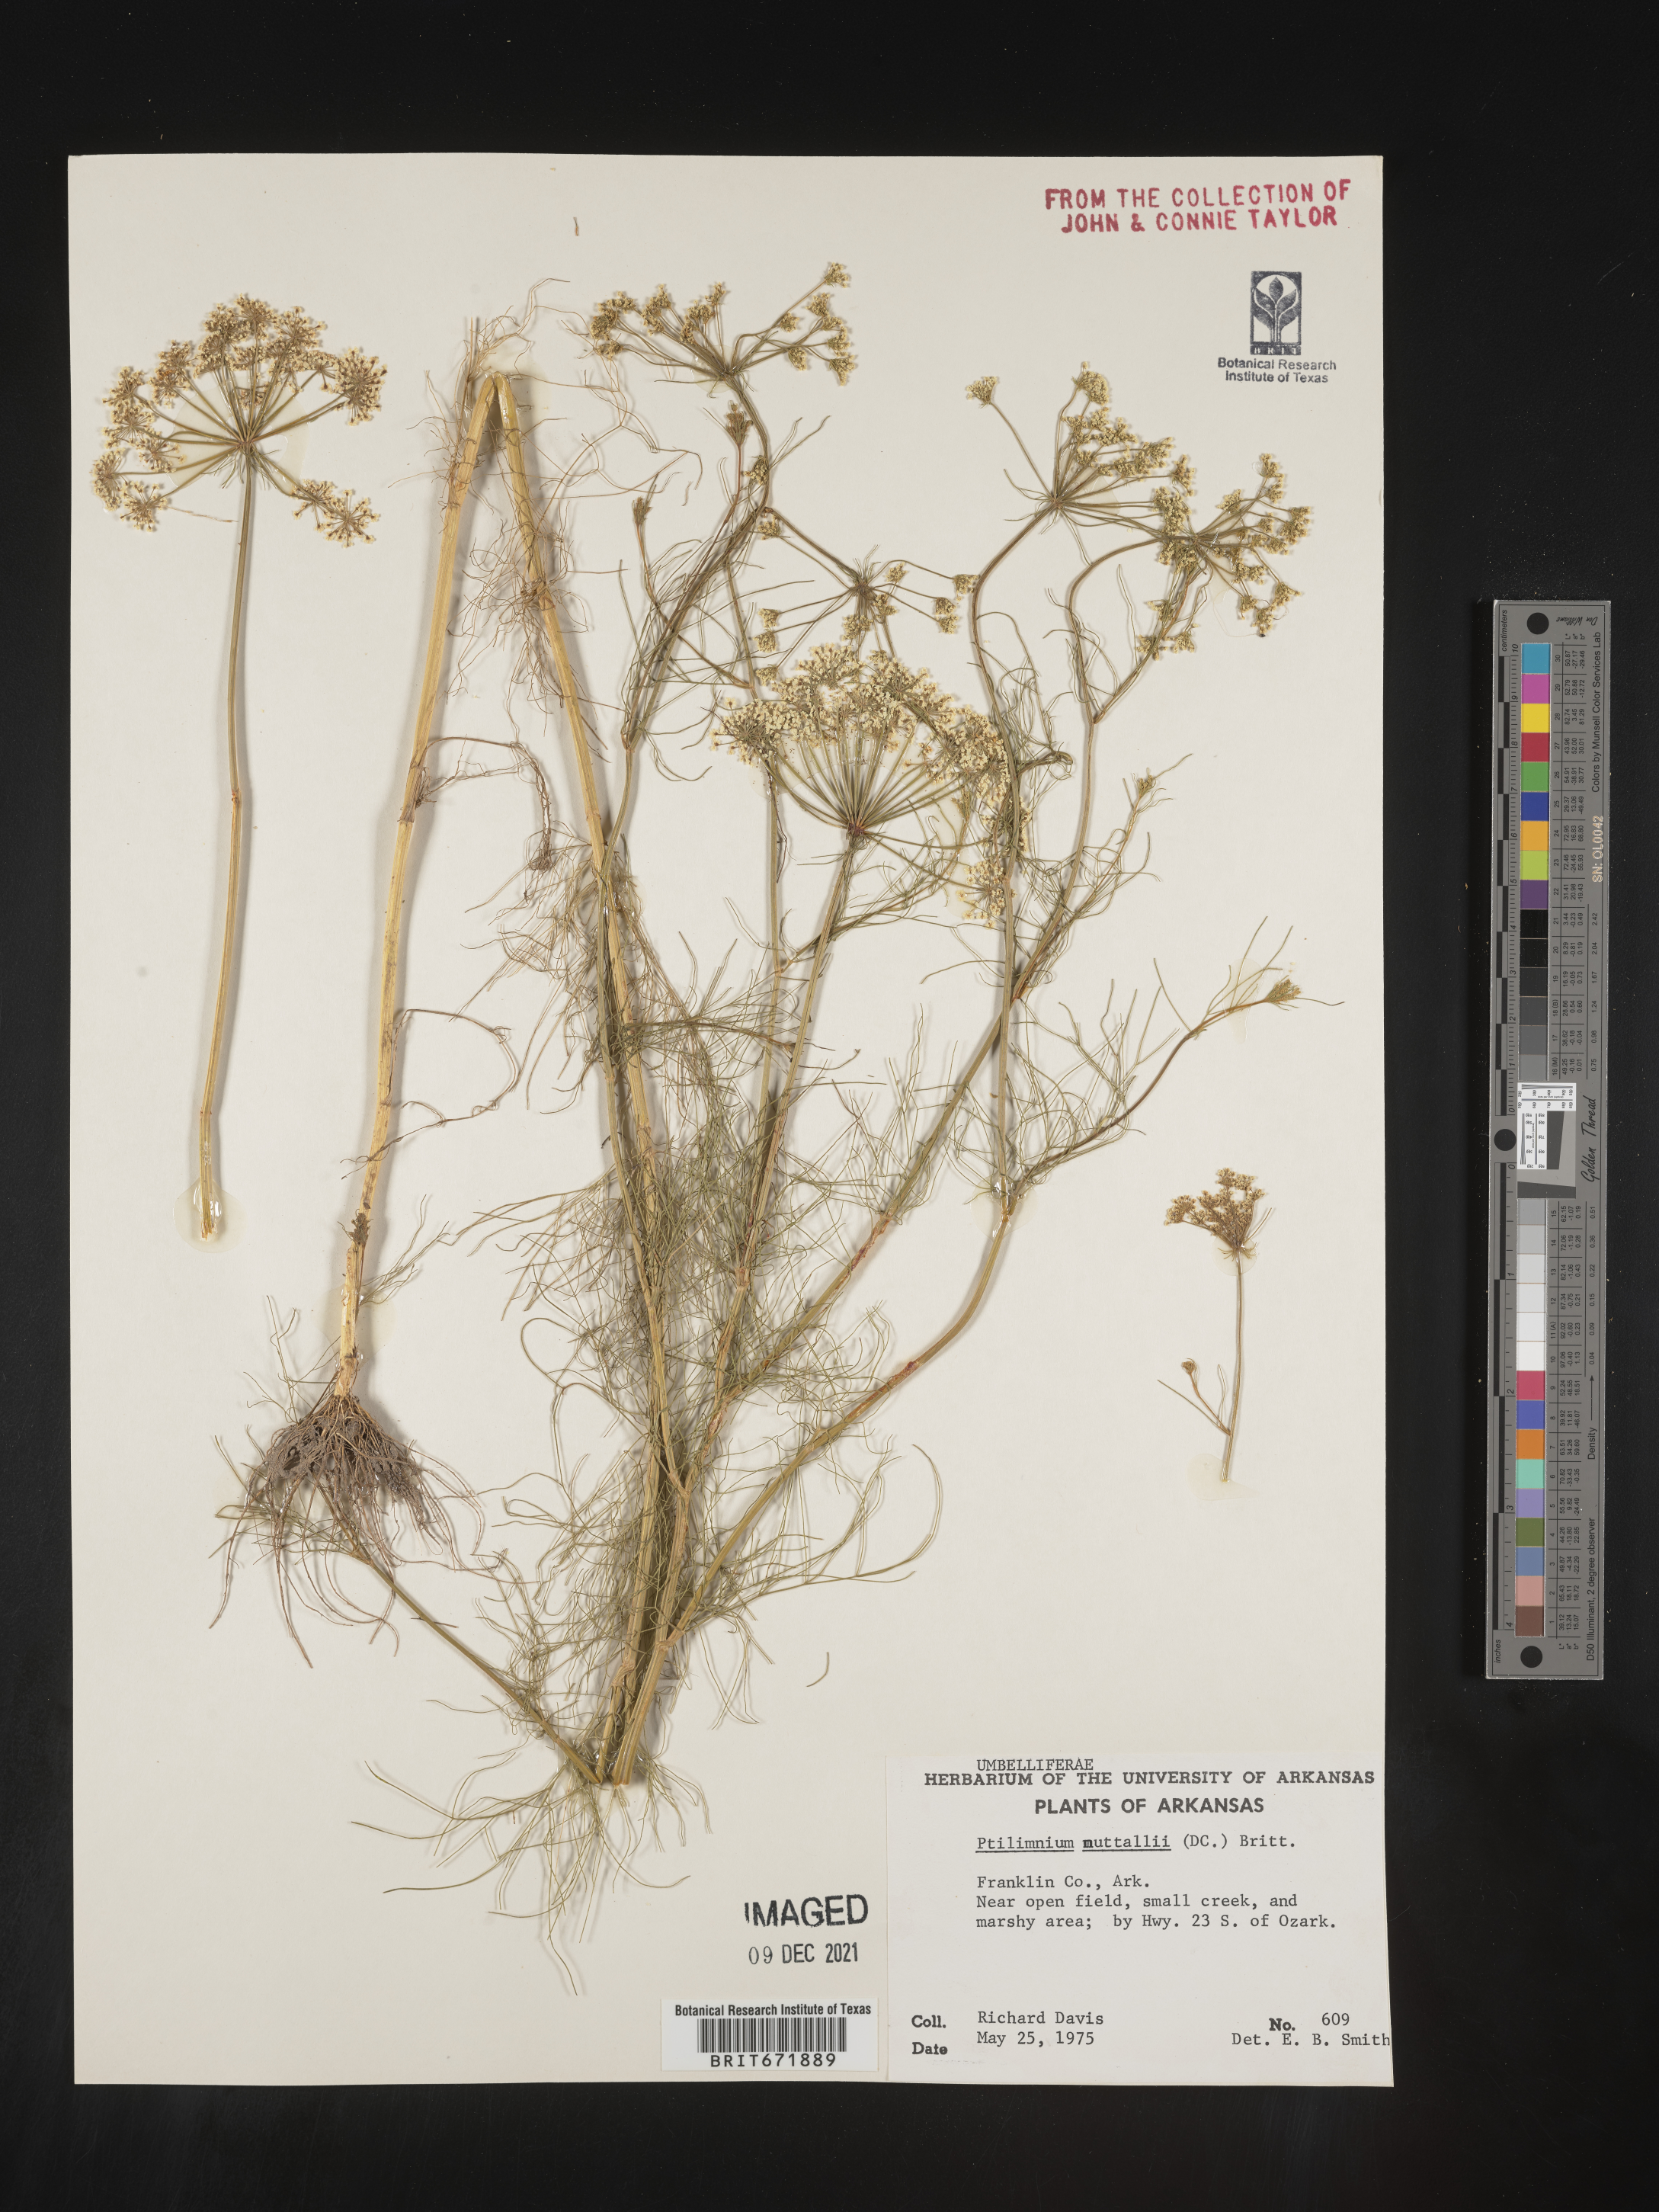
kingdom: Plantae
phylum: Tracheophyta
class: Magnoliopsida
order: Apiales
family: Apiaceae
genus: Ptilimnium
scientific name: Ptilimnium nuttallii
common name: Ozark bishop's-weed
